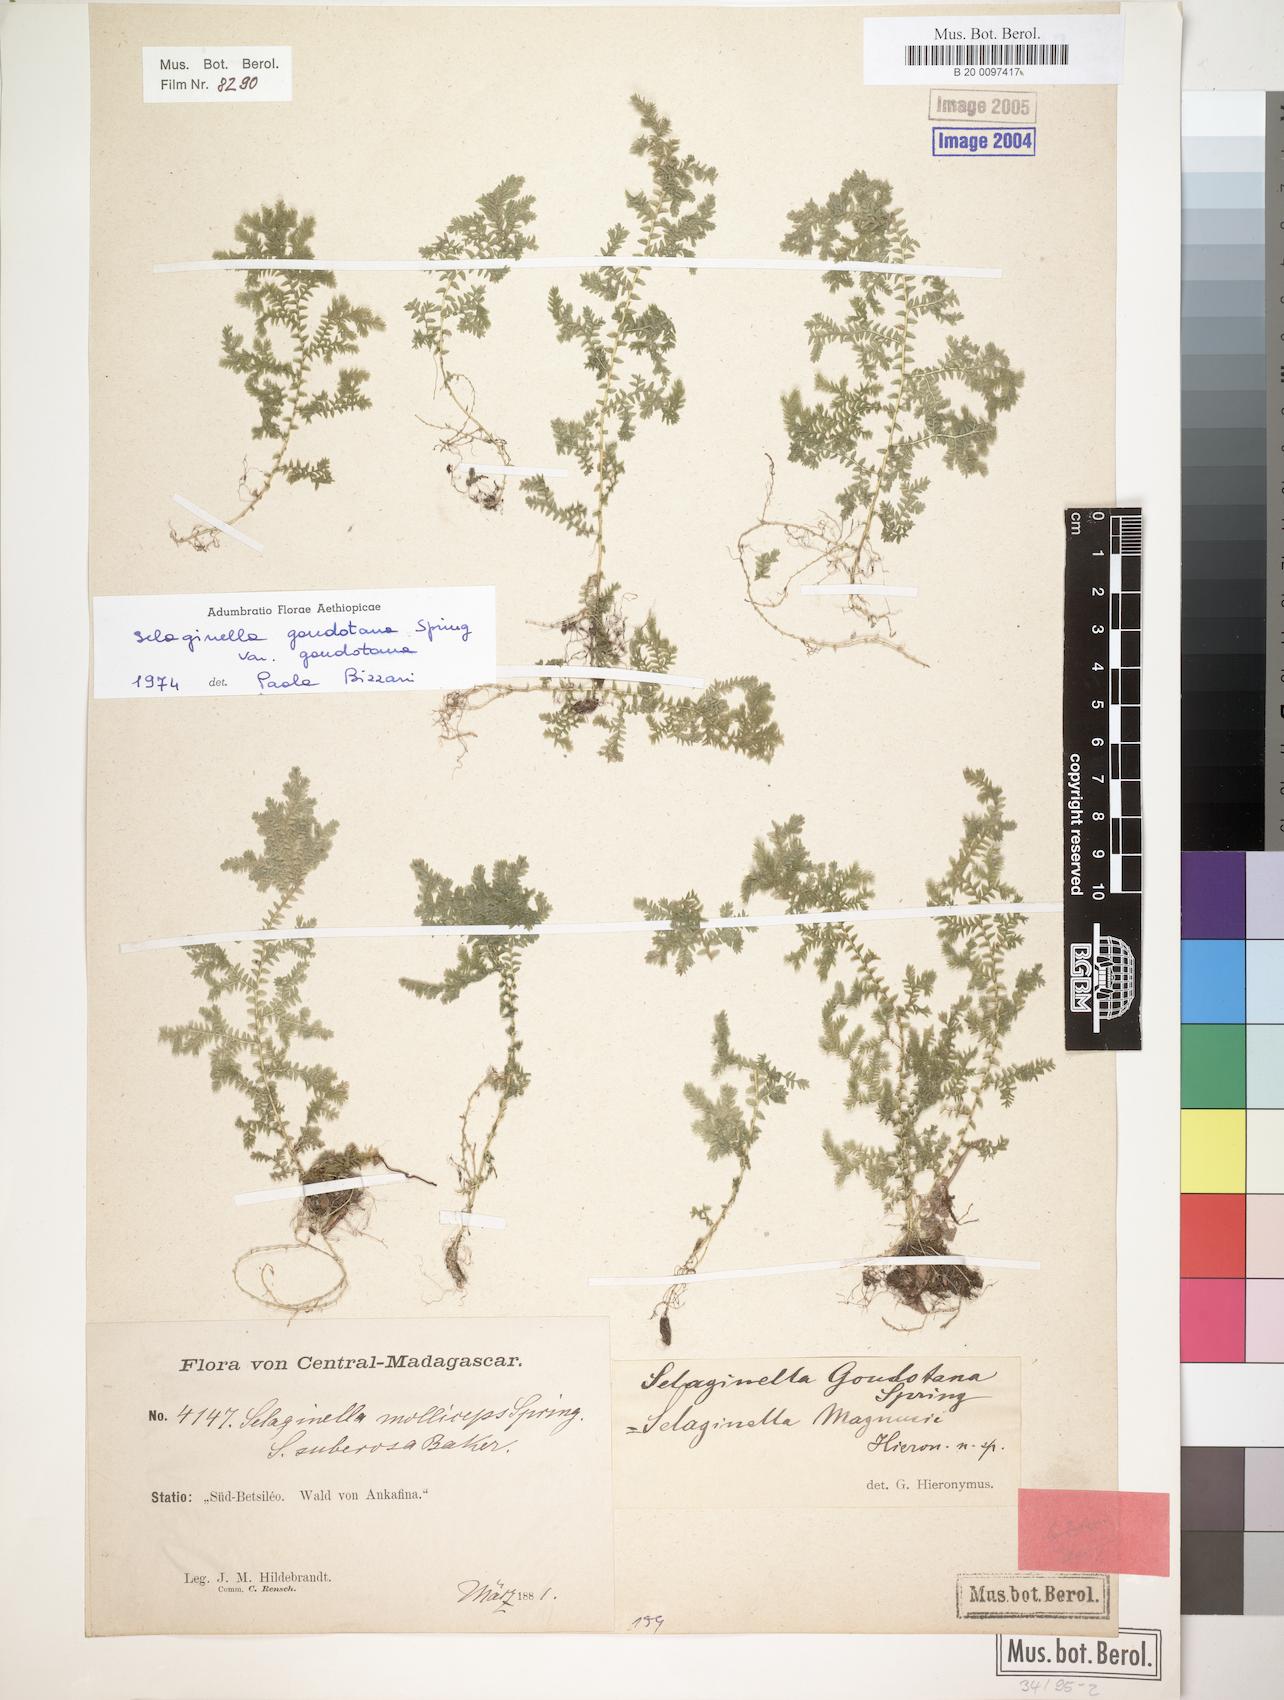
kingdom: Plantae
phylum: Tracheophyta
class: Lycopodiopsida
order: Selaginellales
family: Selaginellaceae
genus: Selaginella
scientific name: Selaginella goudotiana
